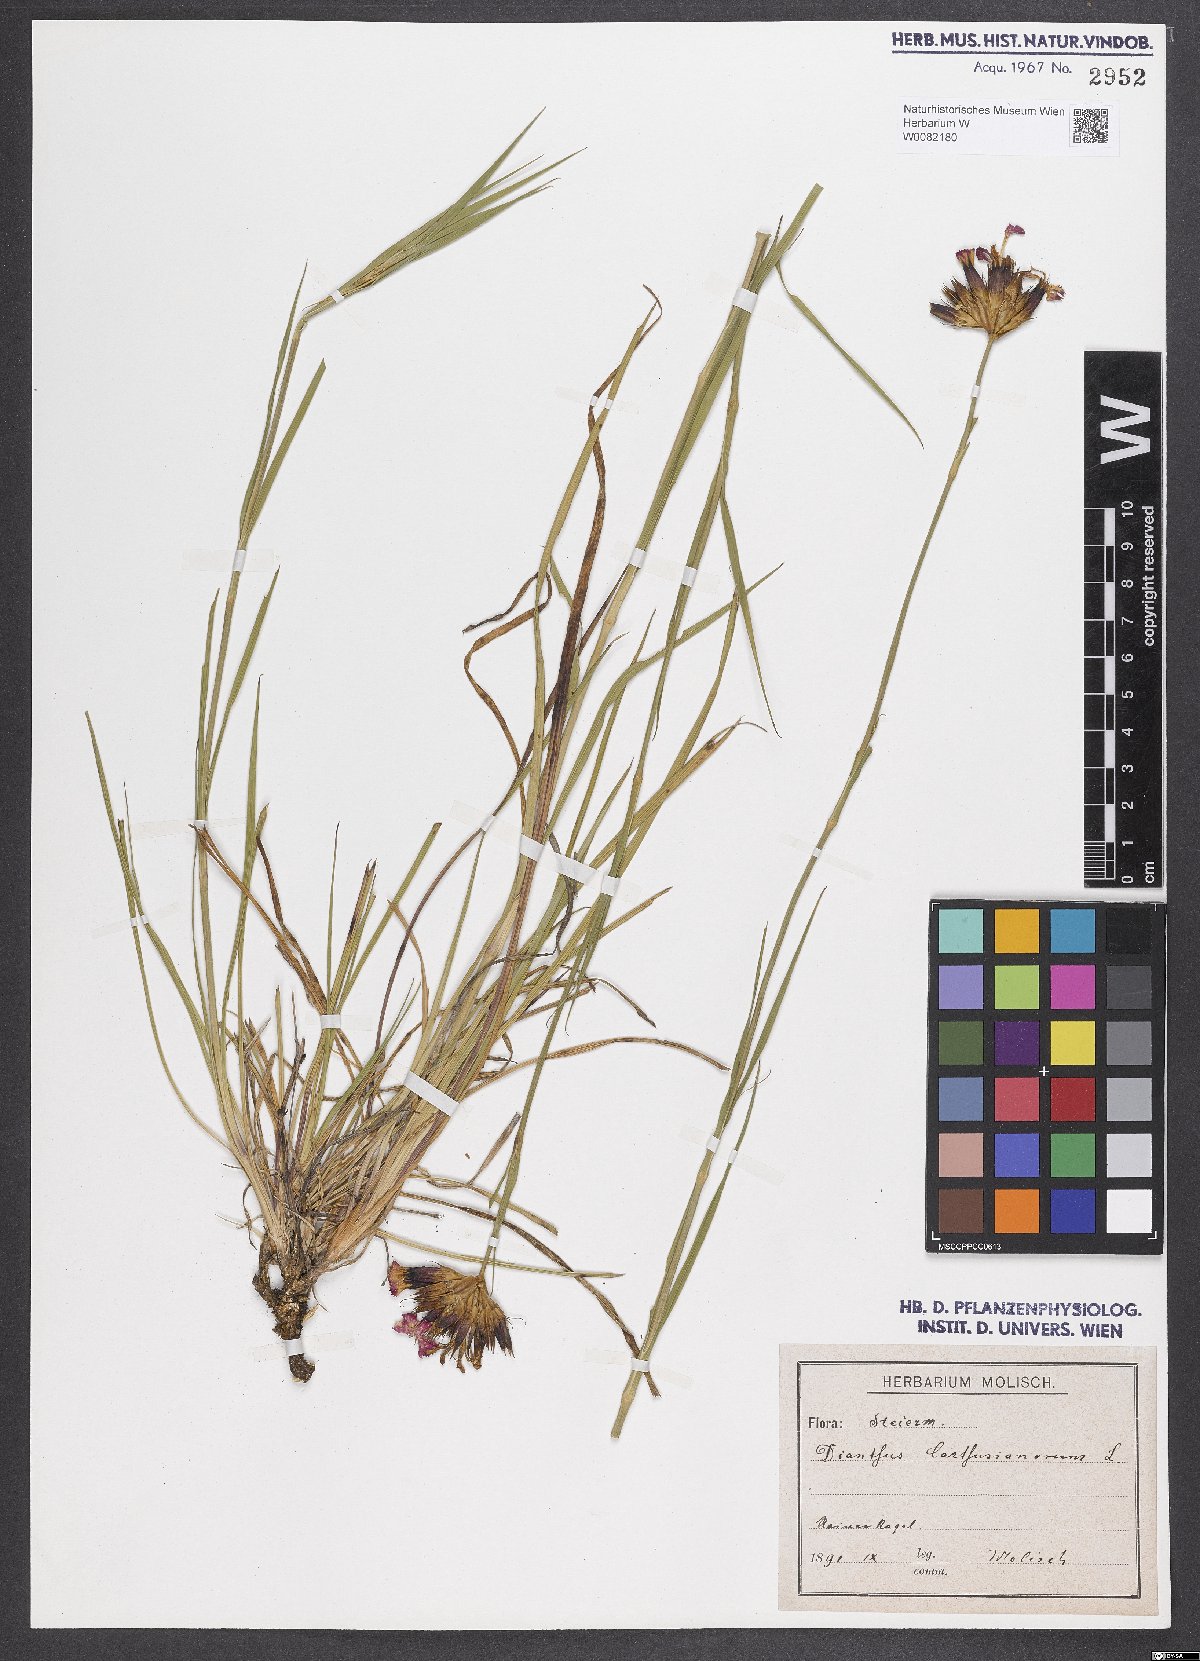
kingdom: Plantae
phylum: Tracheophyta
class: Magnoliopsida
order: Caryophyllales
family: Caryophyllaceae
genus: Dianthus
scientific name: Dianthus carthusianorum
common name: Carthusian pink
